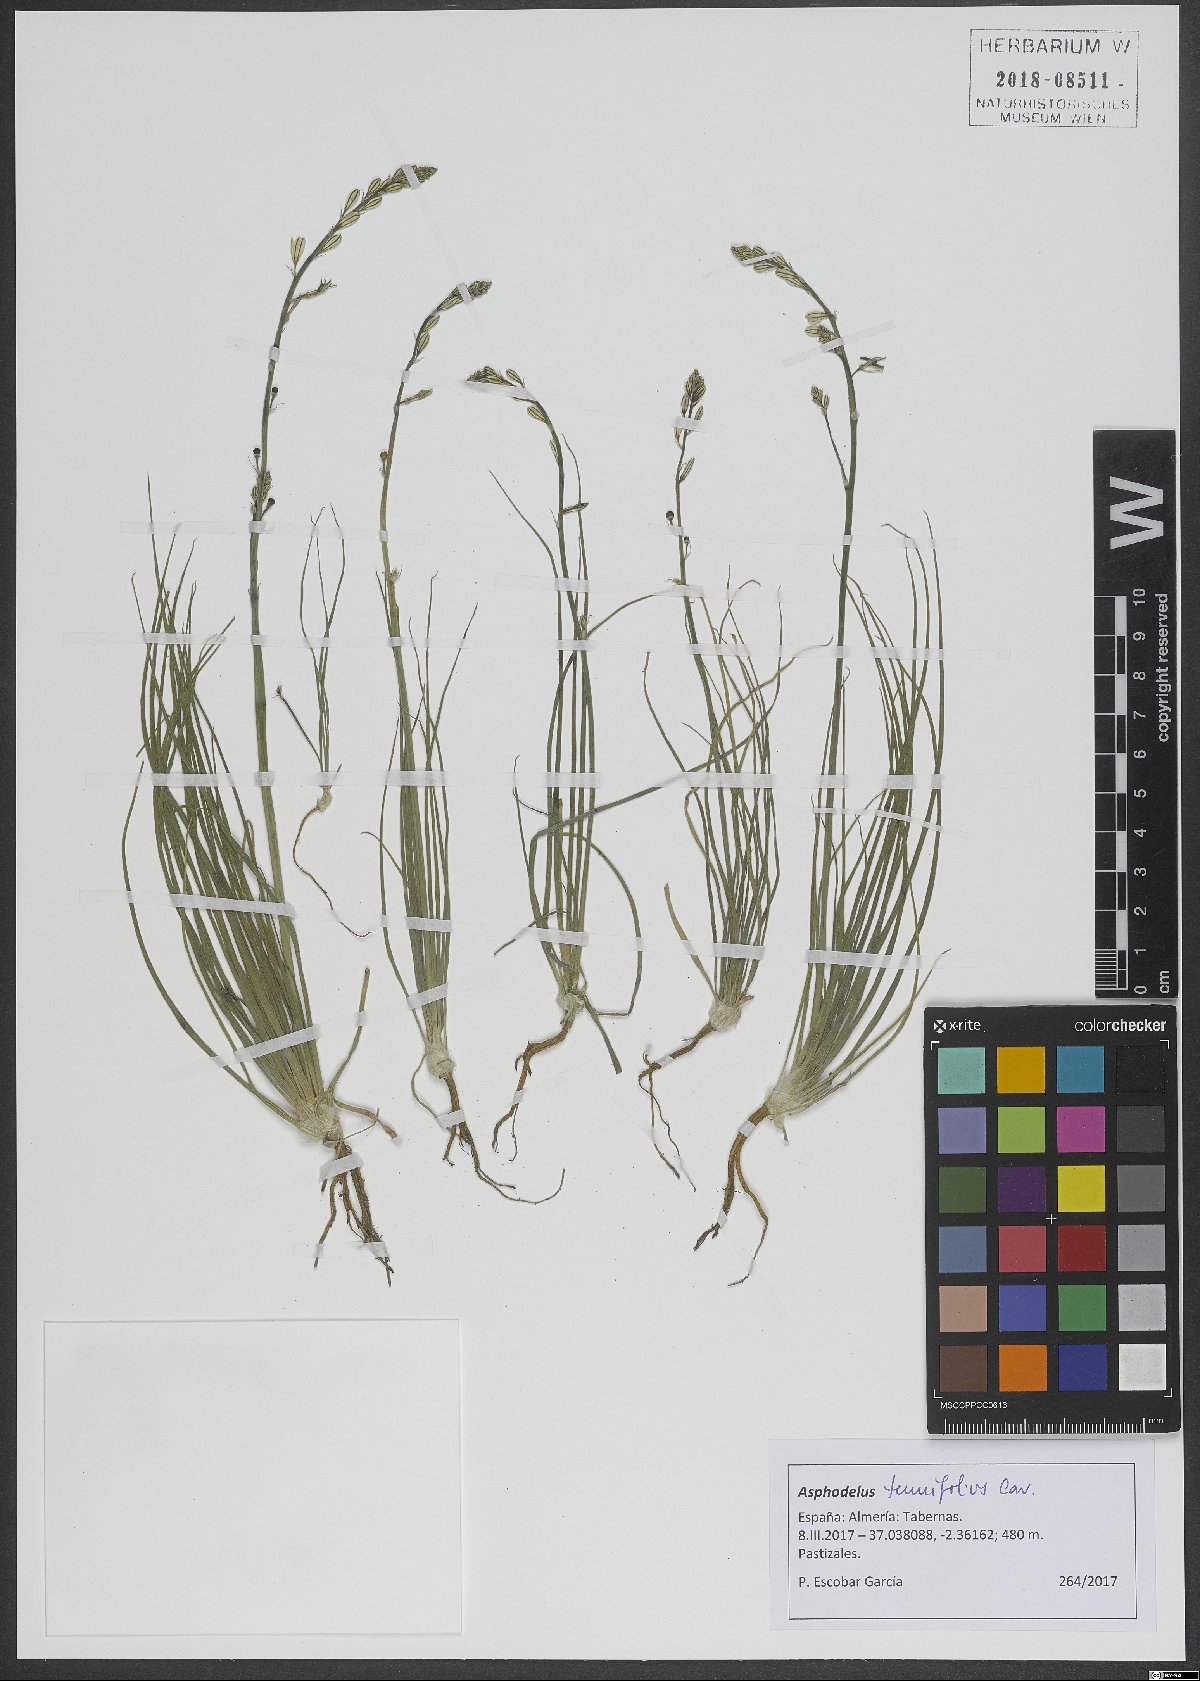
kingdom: Plantae
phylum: Tracheophyta
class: Liliopsida
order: Asparagales
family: Asphodelaceae
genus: Asphodelus
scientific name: Asphodelus tenuifolius
